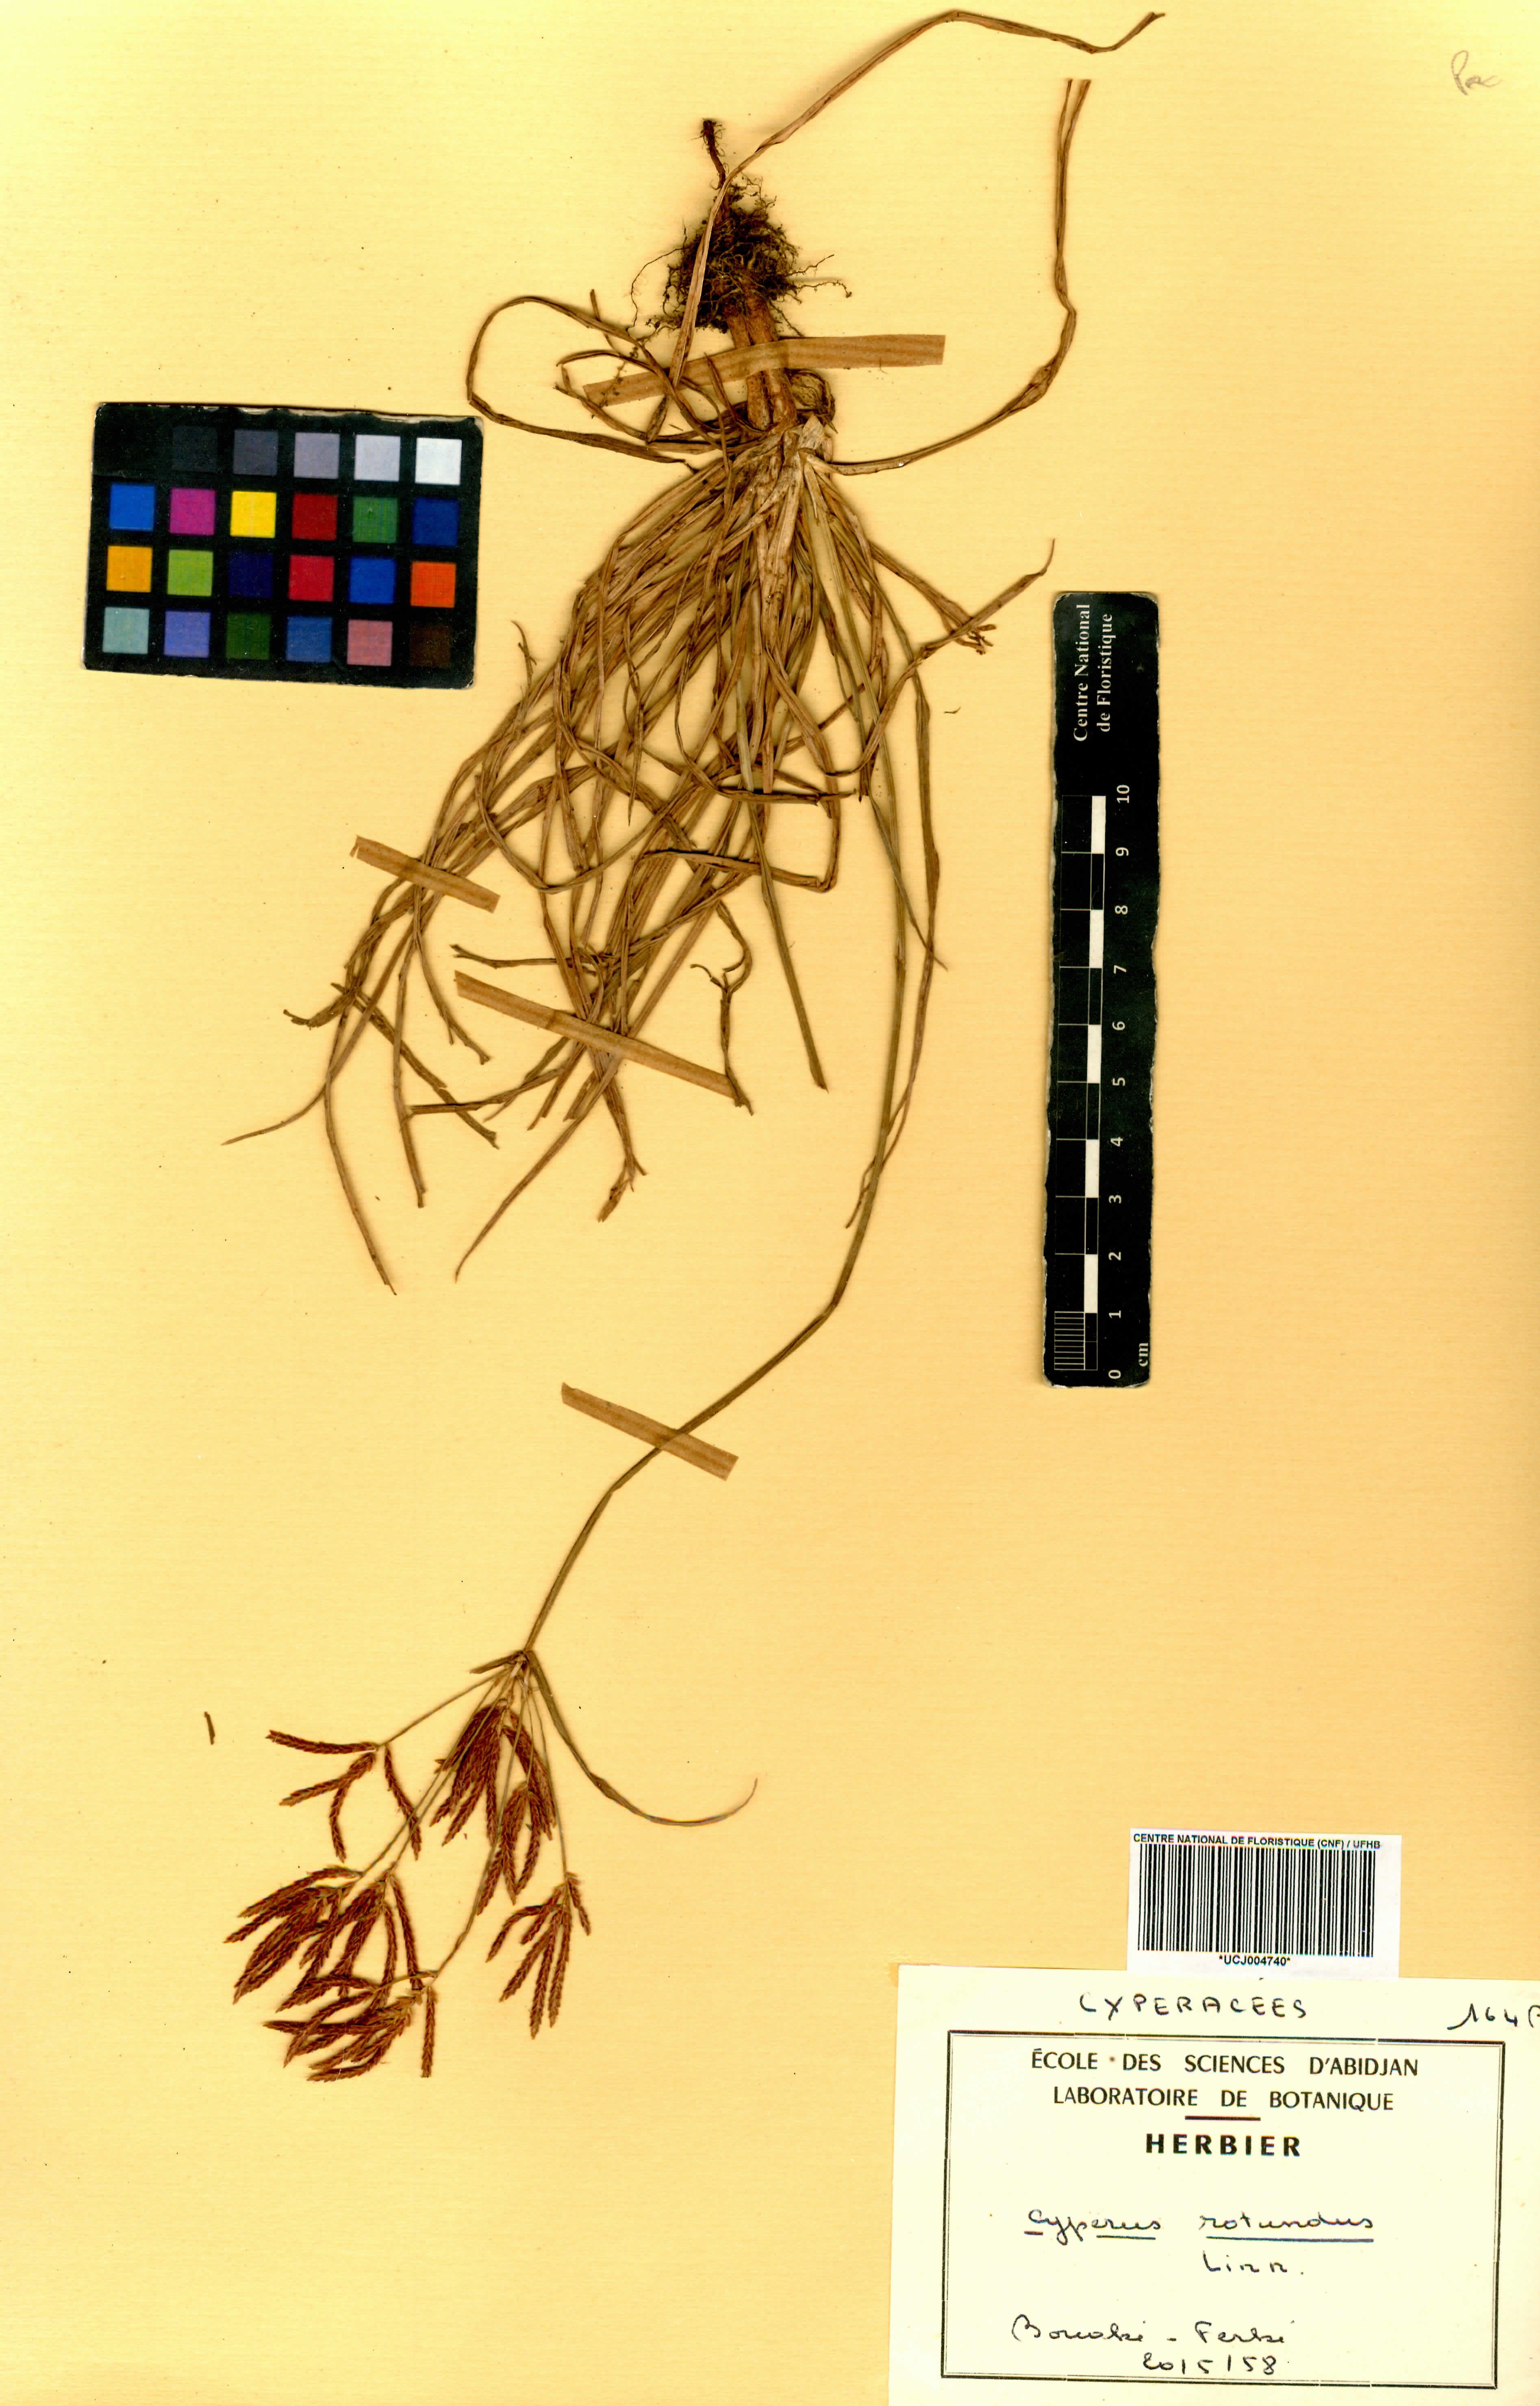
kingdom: Plantae
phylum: Tracheophyta
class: Liliopsida
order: Poales
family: Cyperaceae
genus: Cyperus
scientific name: Cyperus rotundus
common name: Nutgrass
